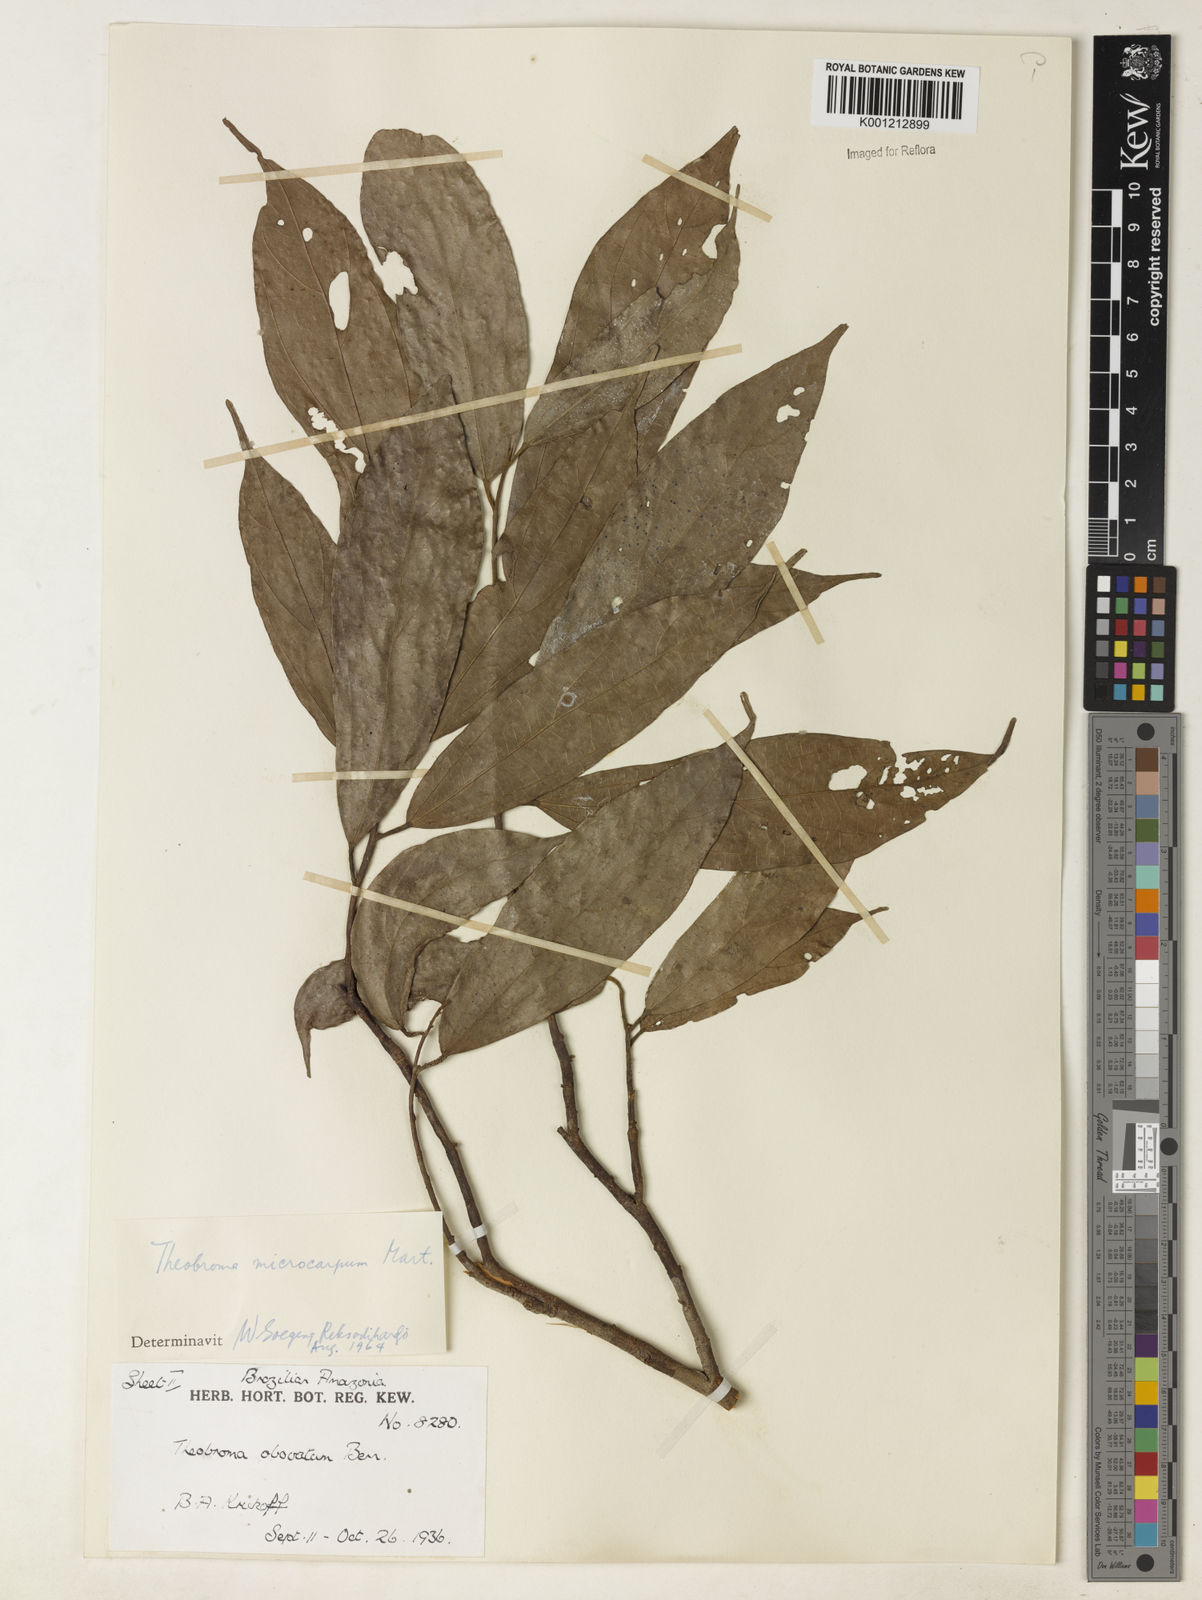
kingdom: Plantae
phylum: Tracheophyta
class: Magnoliopsida
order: Malvales
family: Malvaceae
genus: Theobroma
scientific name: Theobroma obovatum
